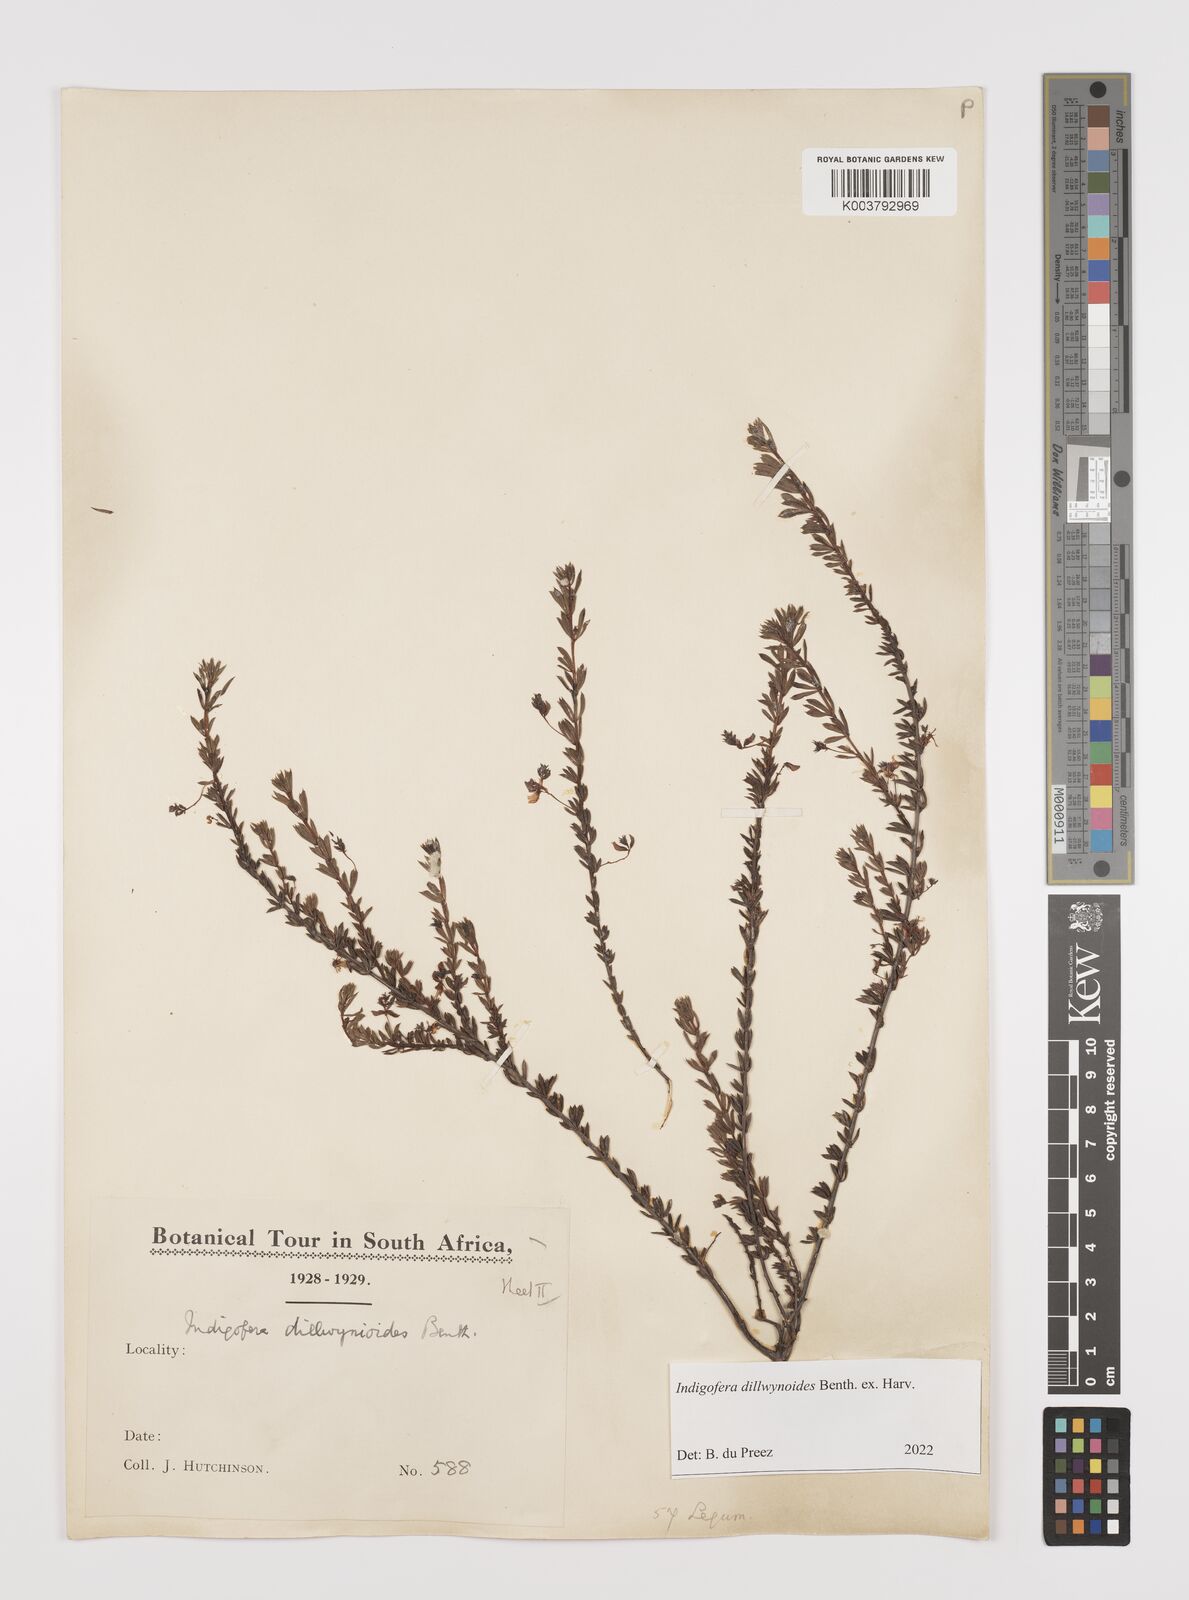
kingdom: Plantae
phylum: Tracheophyta
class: Magnoliopsida
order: Fabales
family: Fabaceae
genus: Indigofera
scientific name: Indigofera dillwynioides
